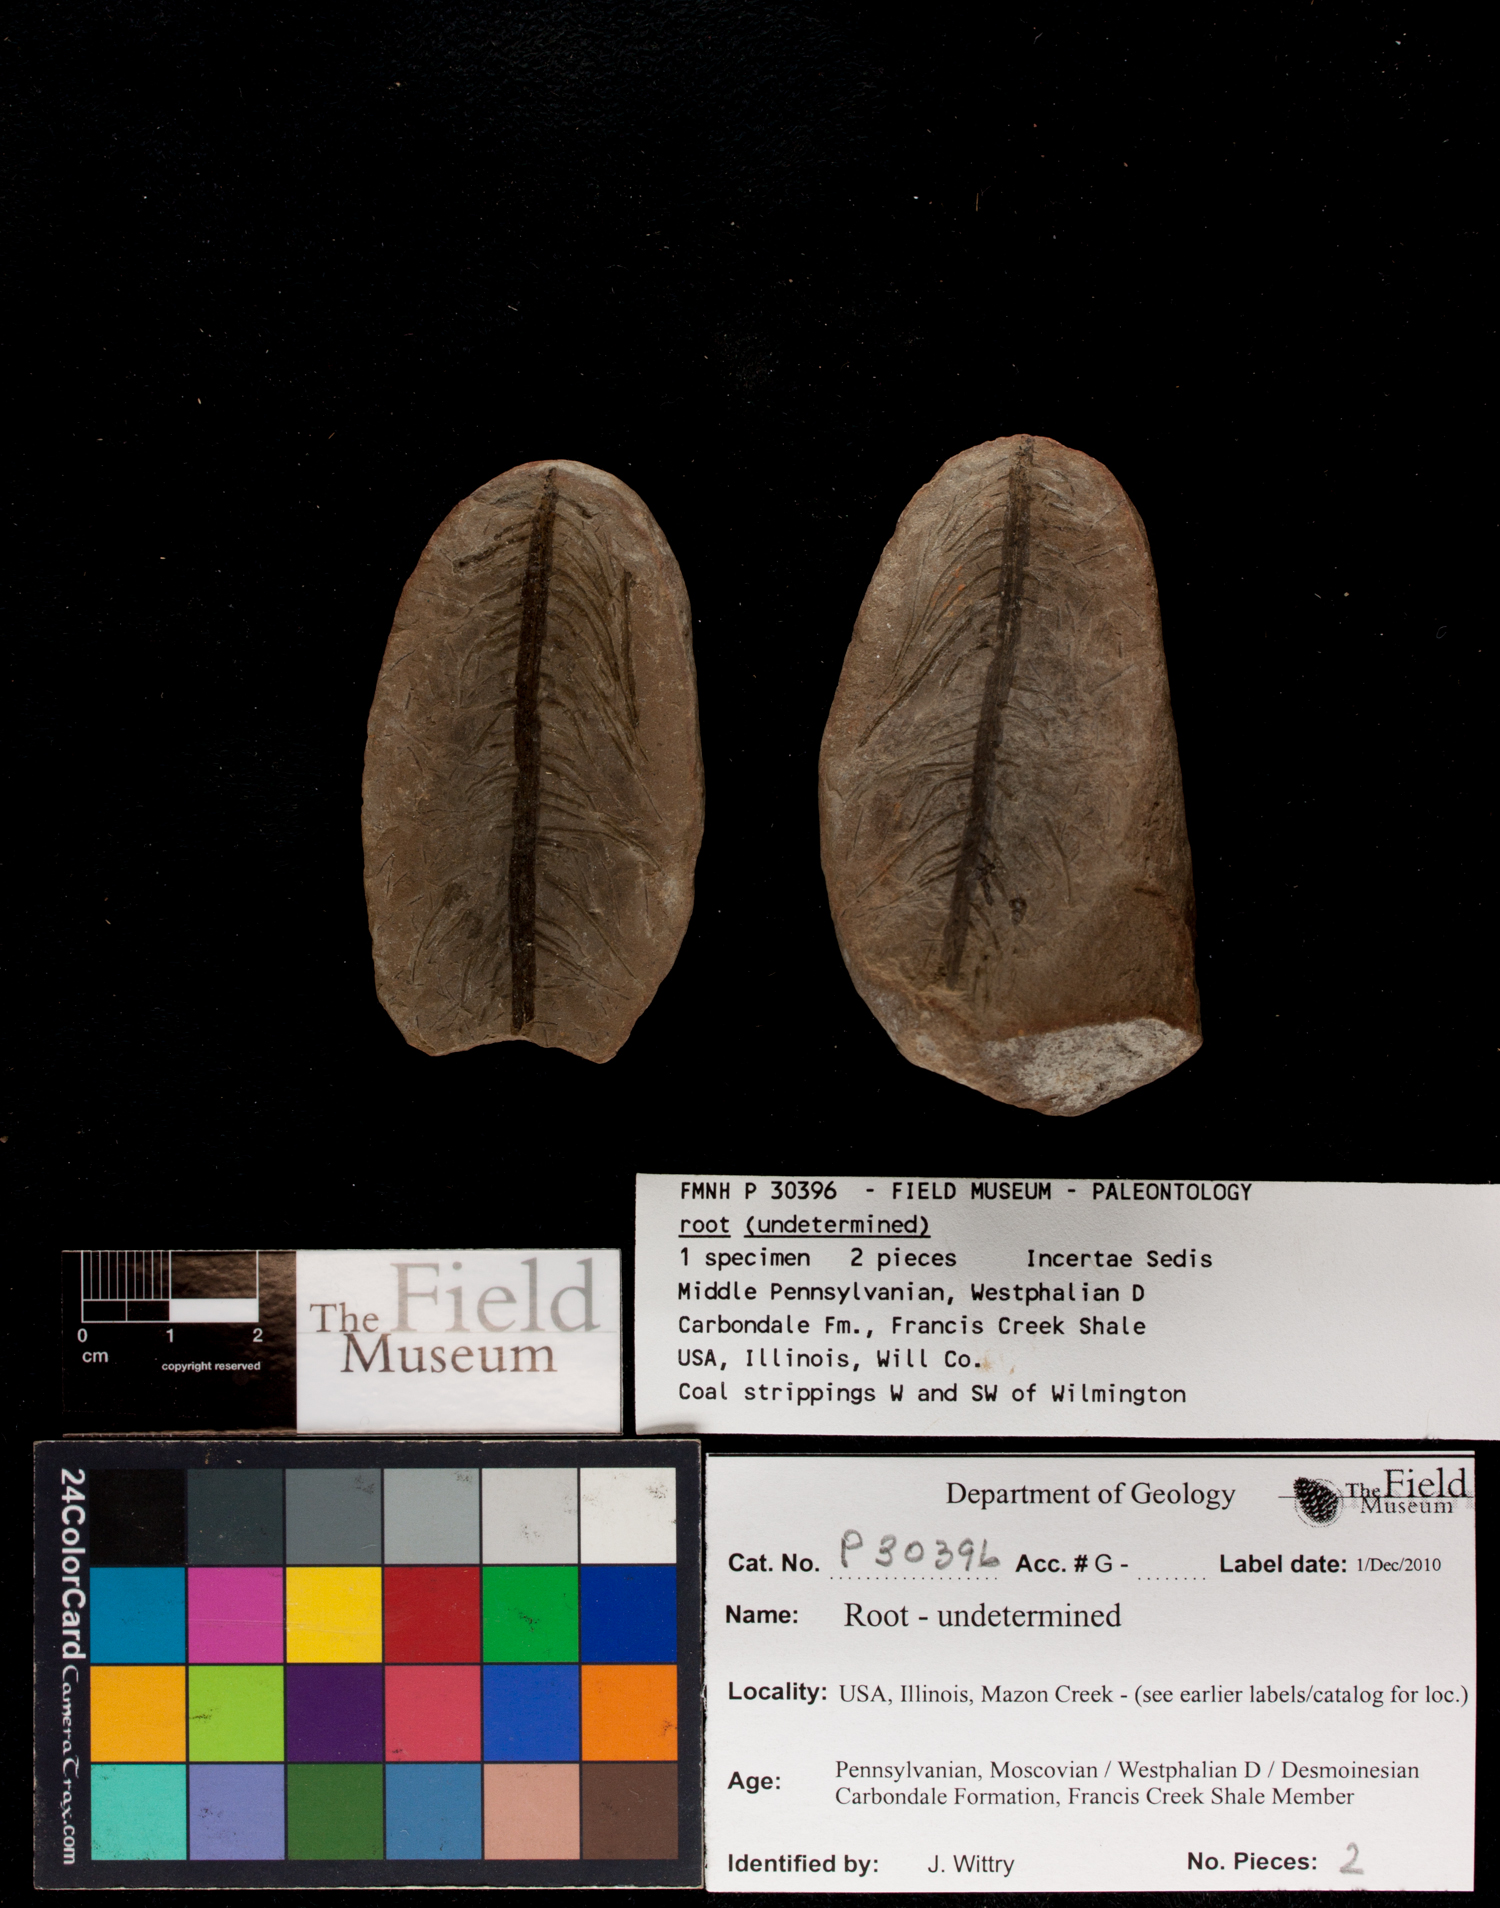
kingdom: Plantae
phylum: Tracheophyta
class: Polypodiopsida
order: Equisetales
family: Calamitaceae
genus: Radicites
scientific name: Radicites
